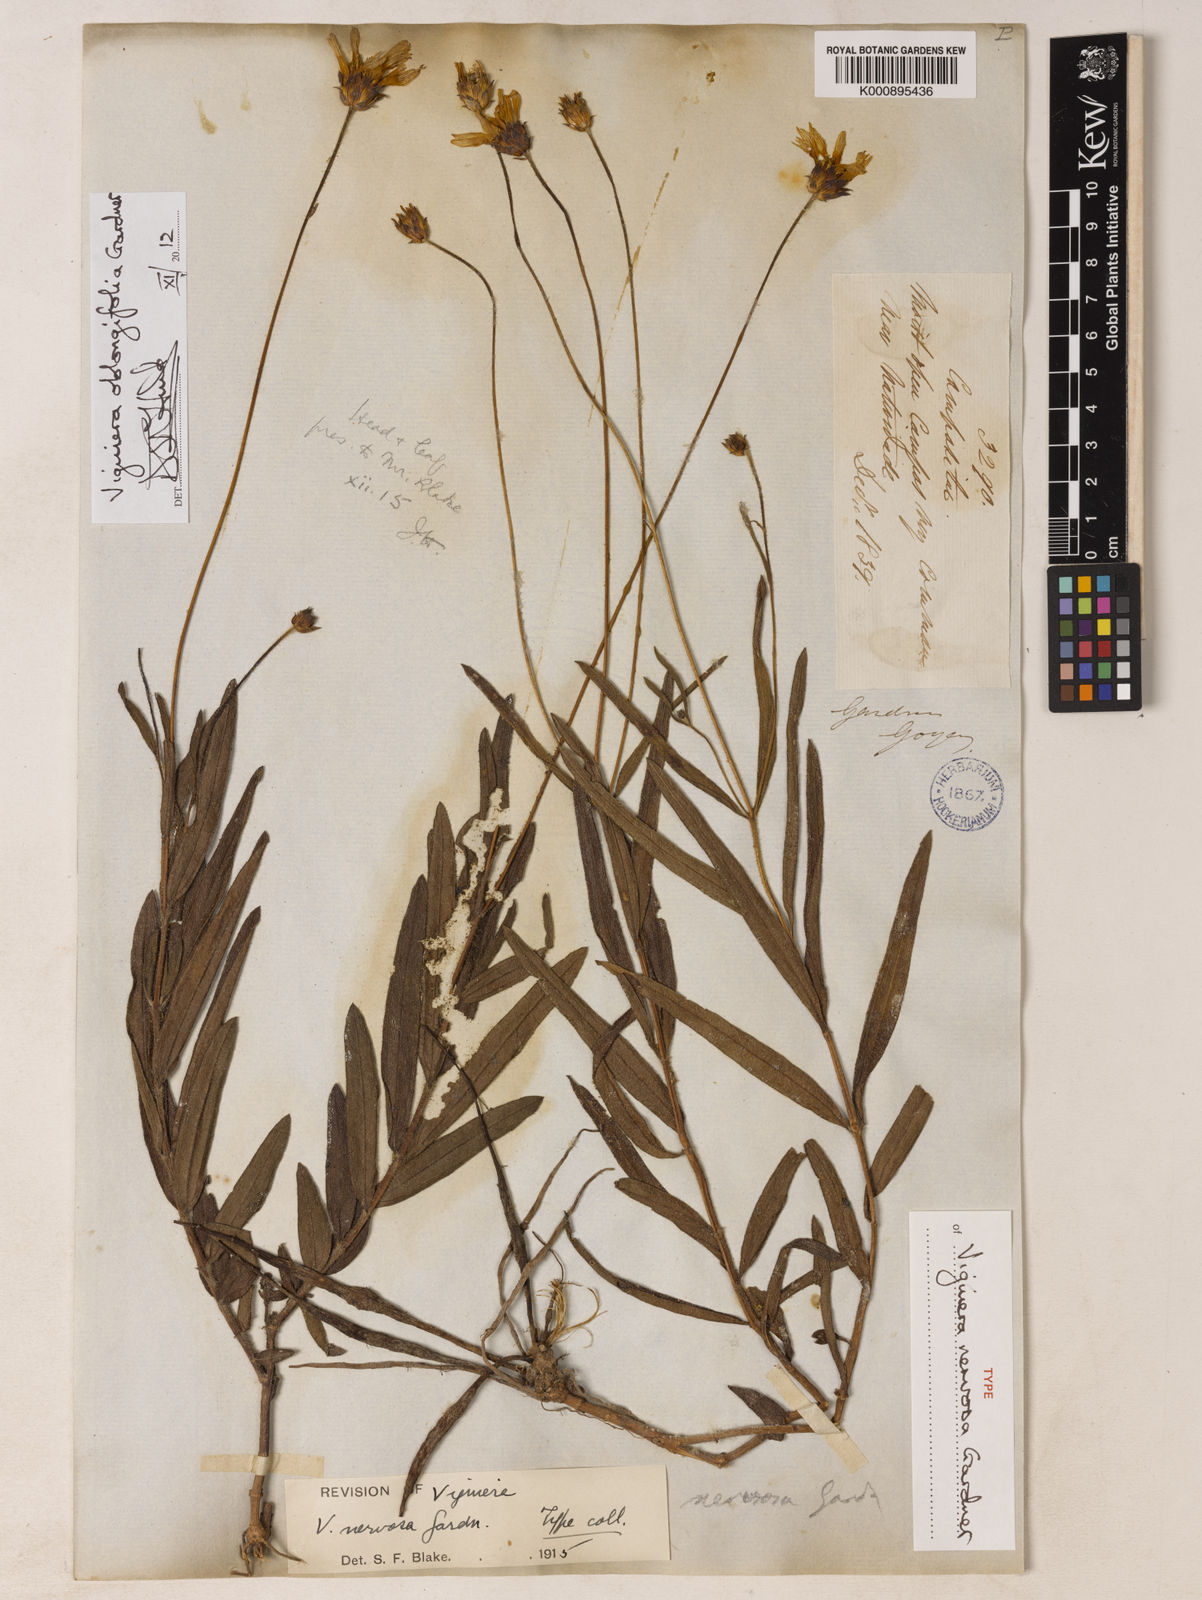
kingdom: Plantae
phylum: Tracheophyta
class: Magnoliopsida
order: Asterales
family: Asteraceae
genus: Aldama
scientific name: Aldama oblongifolia
